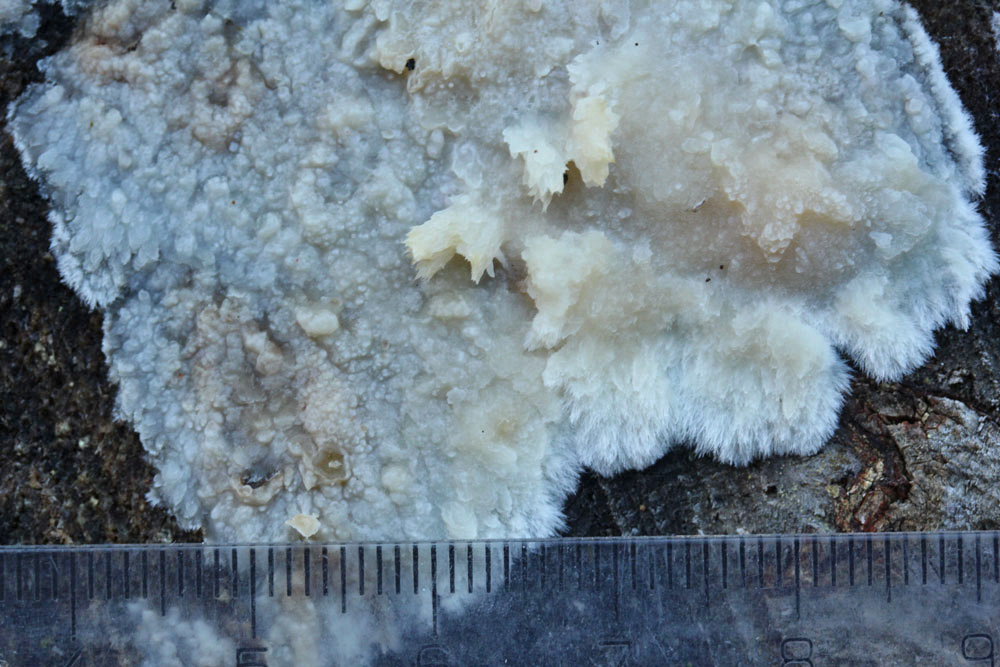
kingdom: Fungi
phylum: Basidiomycota
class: Agaricomycetes
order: Polyporales
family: Phanerochaetaceae
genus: Phlebiopsis
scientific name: Phlebiopsis gigantea
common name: kæmpebarksvamp
